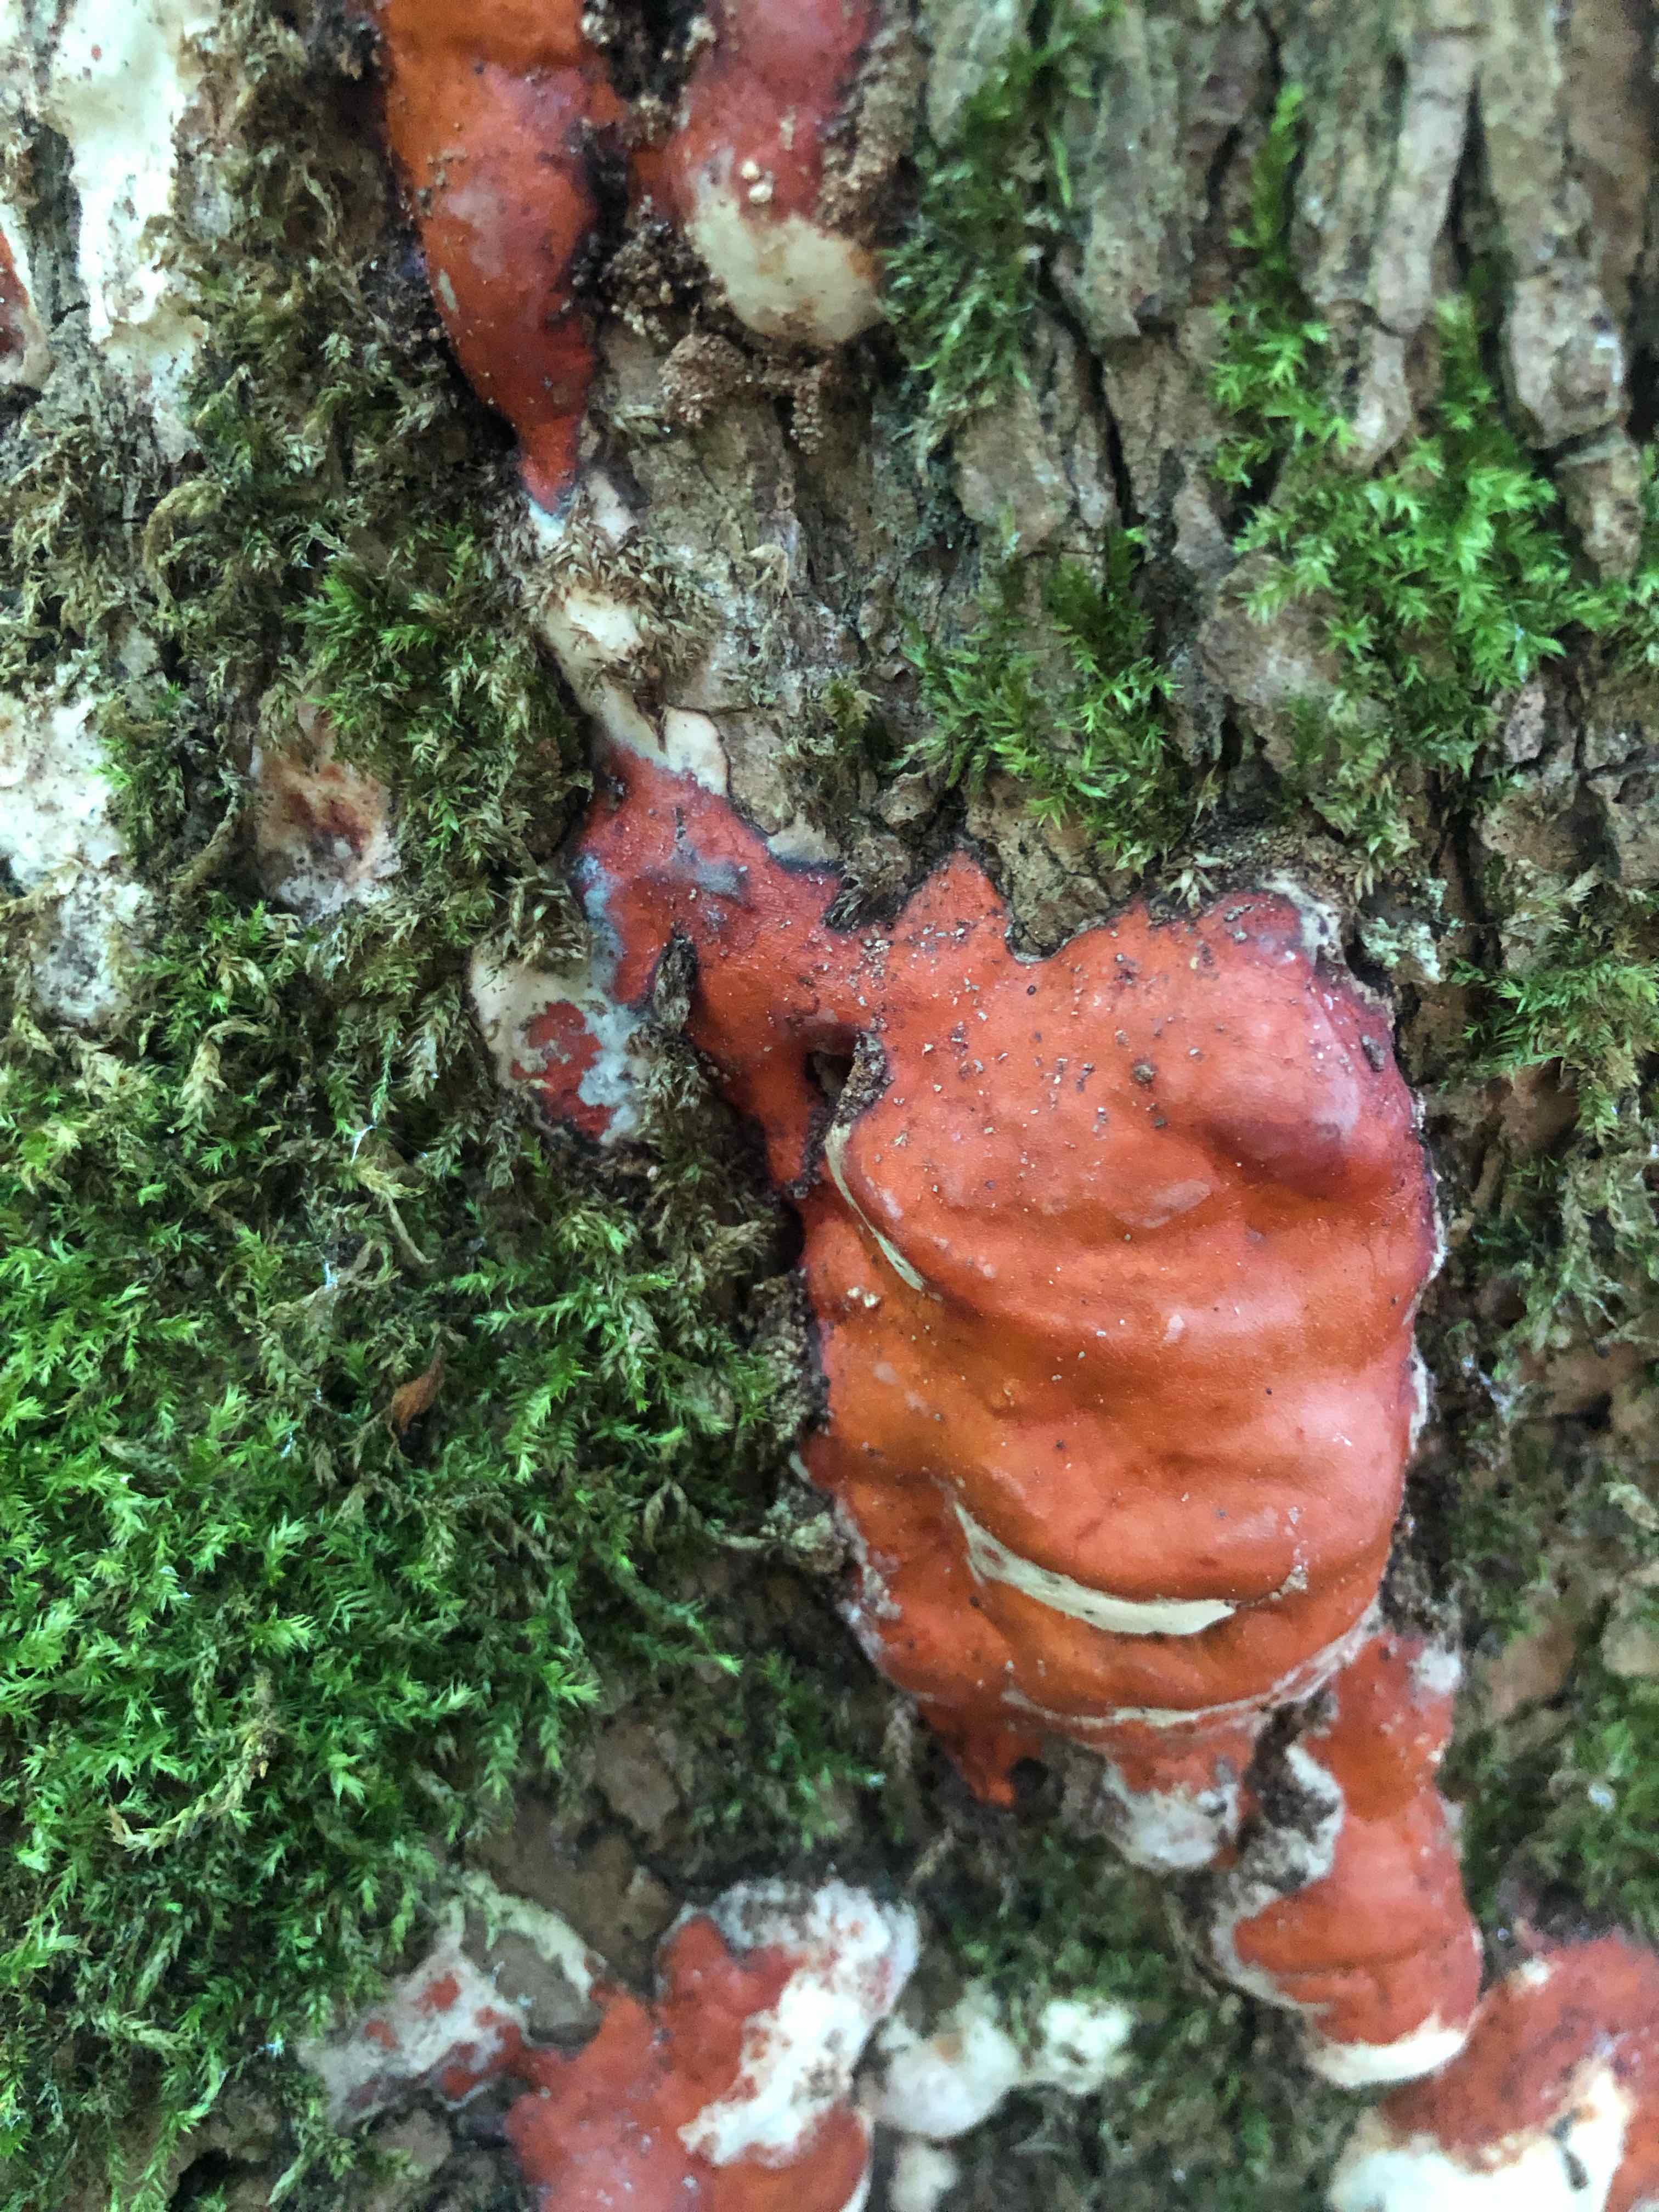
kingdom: Fungi
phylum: Basidiomycota
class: Agaricomycetes
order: Polyporales
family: Fomitopsidaceae
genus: Fomitopsis
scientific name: Fomitopsis pinicola
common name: randbæltet hovporesvamp
